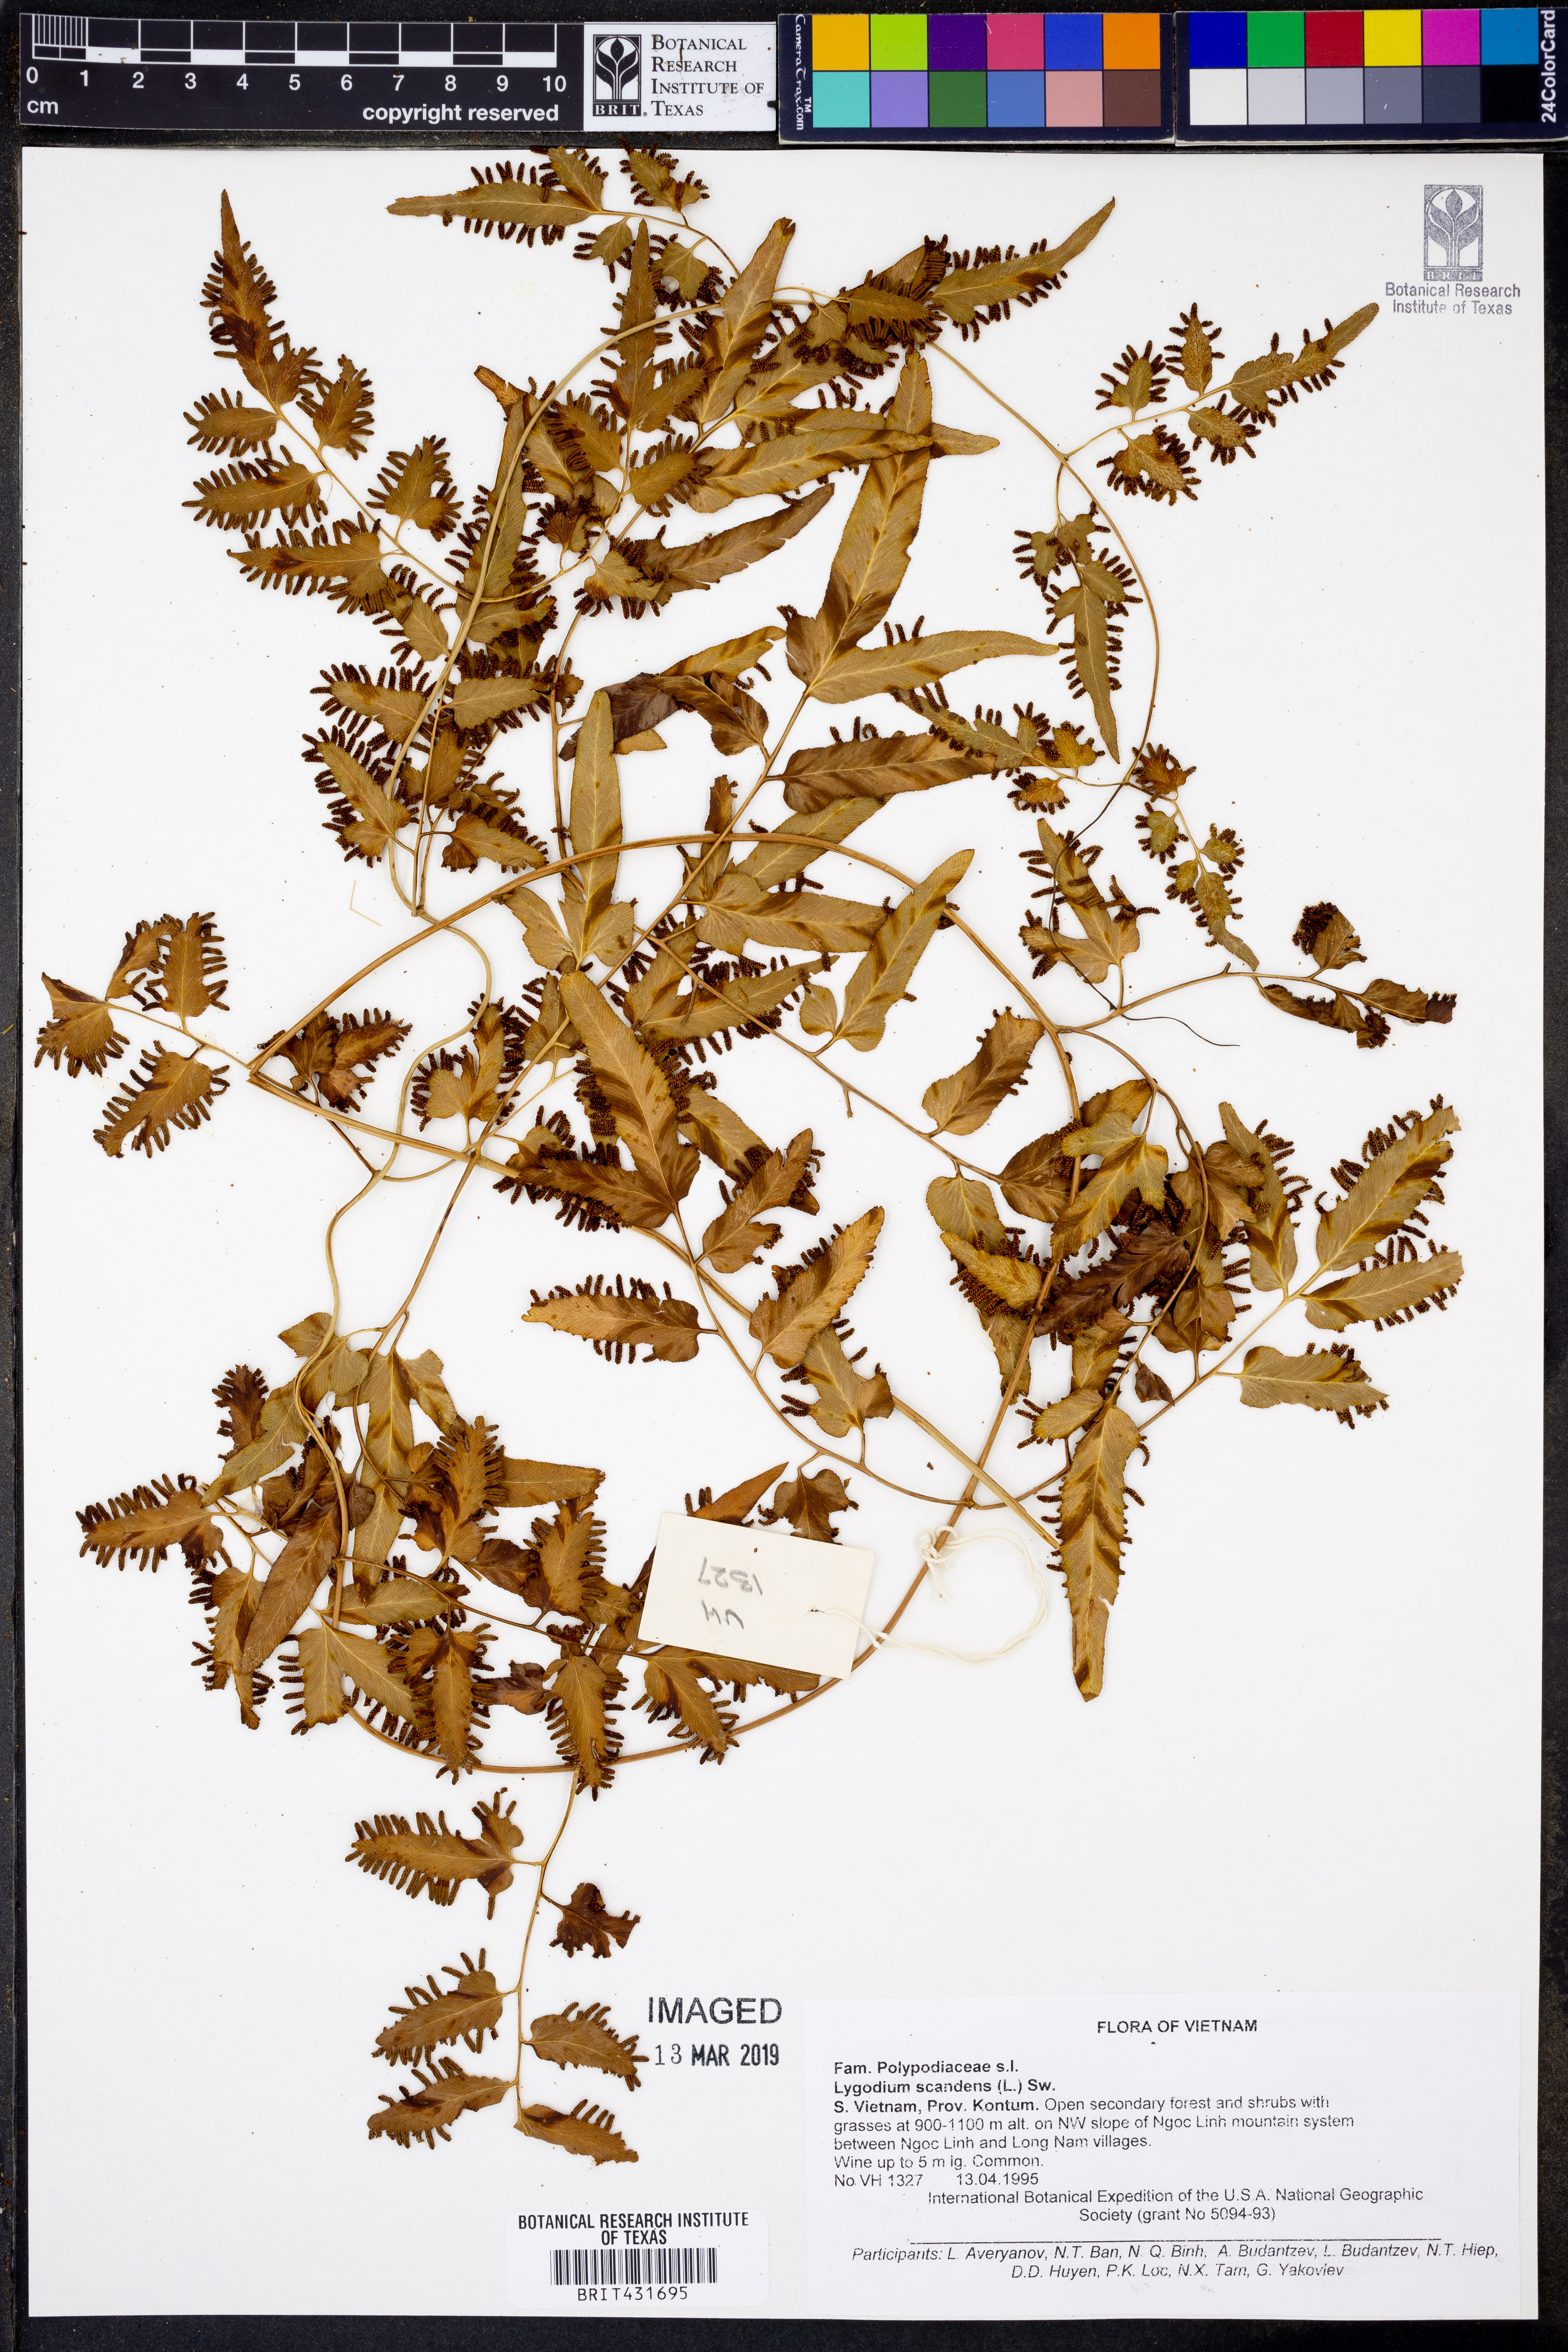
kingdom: Plantae
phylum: Tracheophyta
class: Polypodiopsida
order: Schizaeales
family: Lygodiaceae
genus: Lygodium
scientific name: Lygodium flexuosum
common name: Maidenhair creeper
